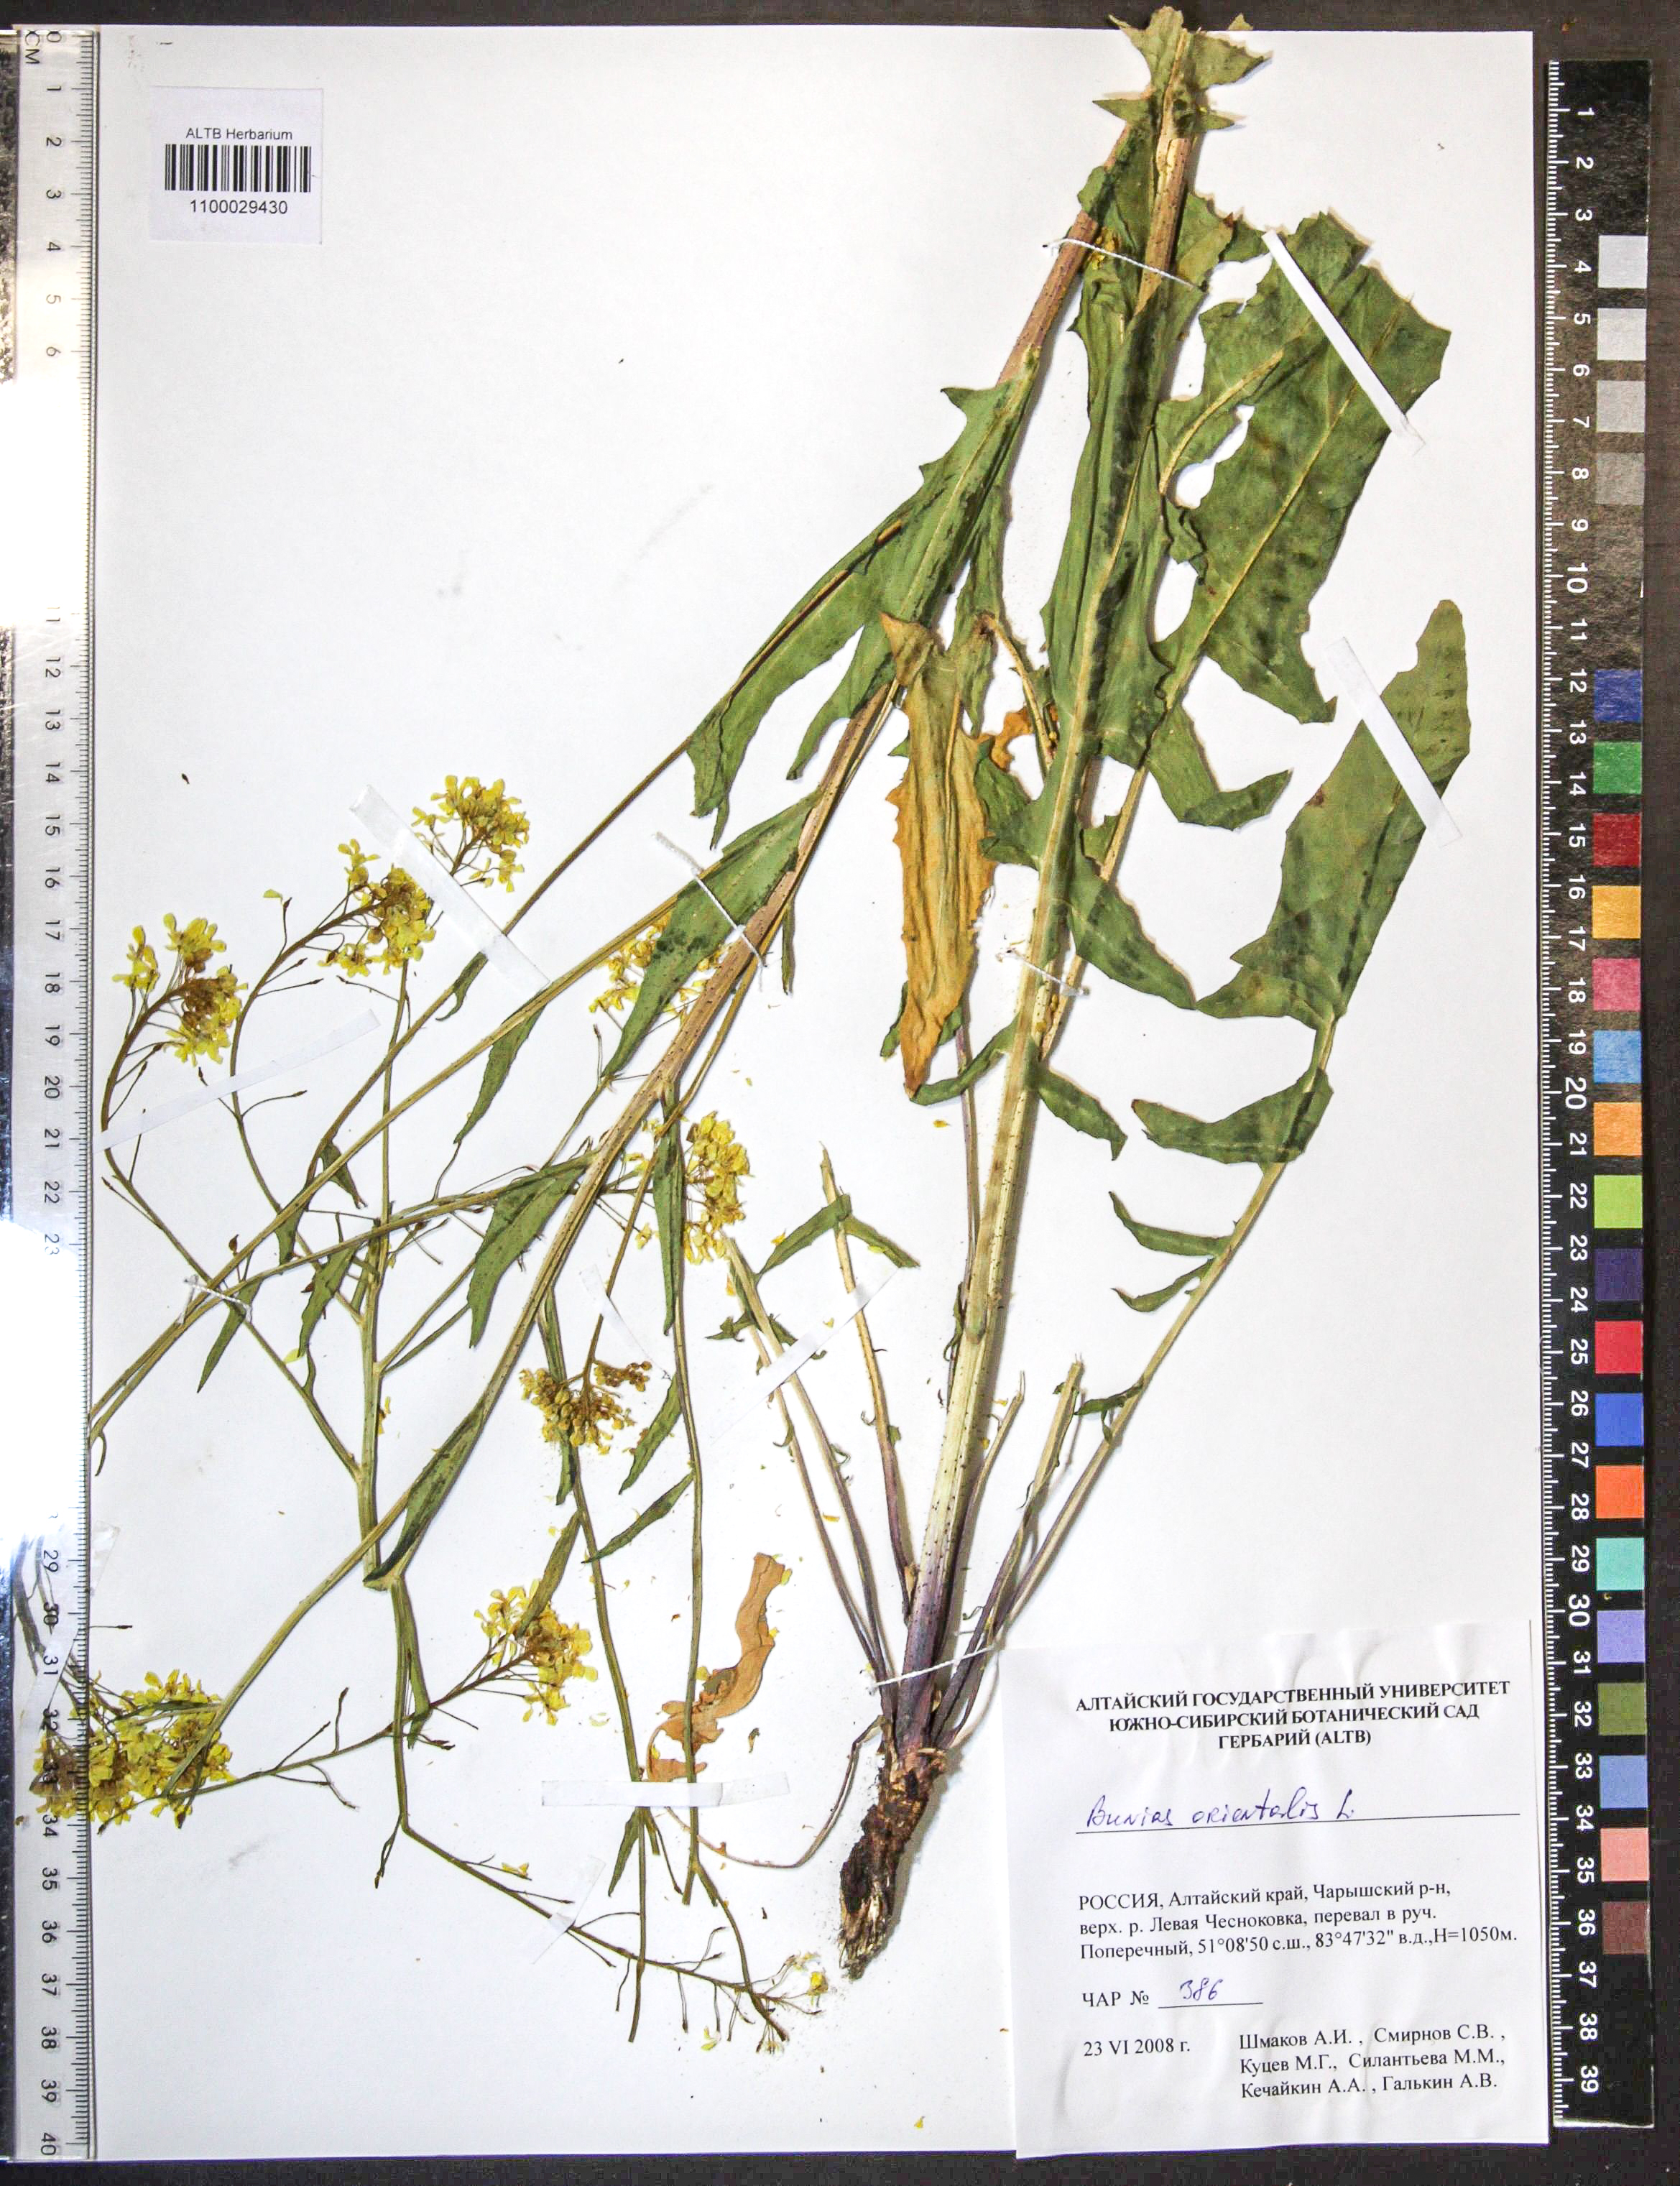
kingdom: Plantae
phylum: Tracheophyta
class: Magnoliopsida
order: Brassicales
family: Brassicaceae
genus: Bunias
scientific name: Bunias orientalis
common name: Warty-cabbage
